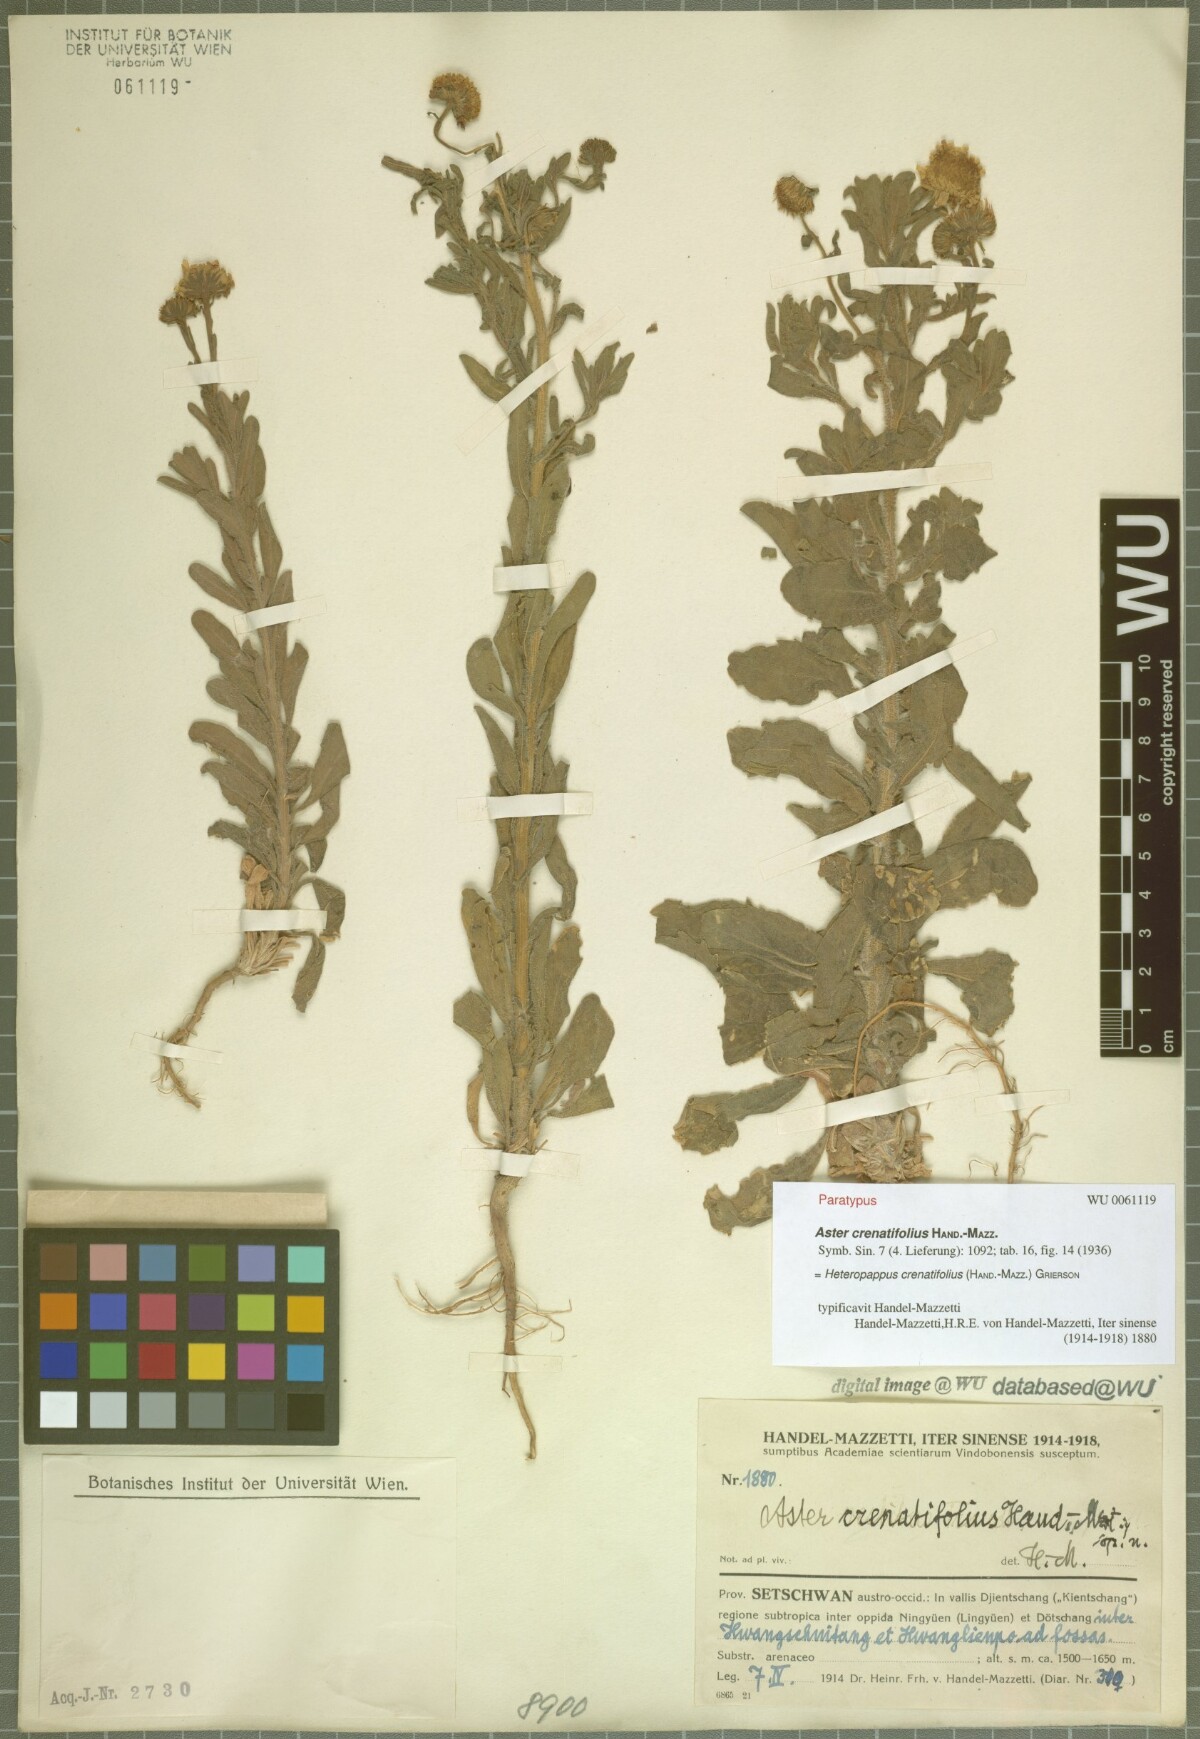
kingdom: Plantae
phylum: Tracheophyta
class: Magnoliopsida
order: Asterales
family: Asteraceae
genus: Heteropappus
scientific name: Heteropappus crenatifolius
